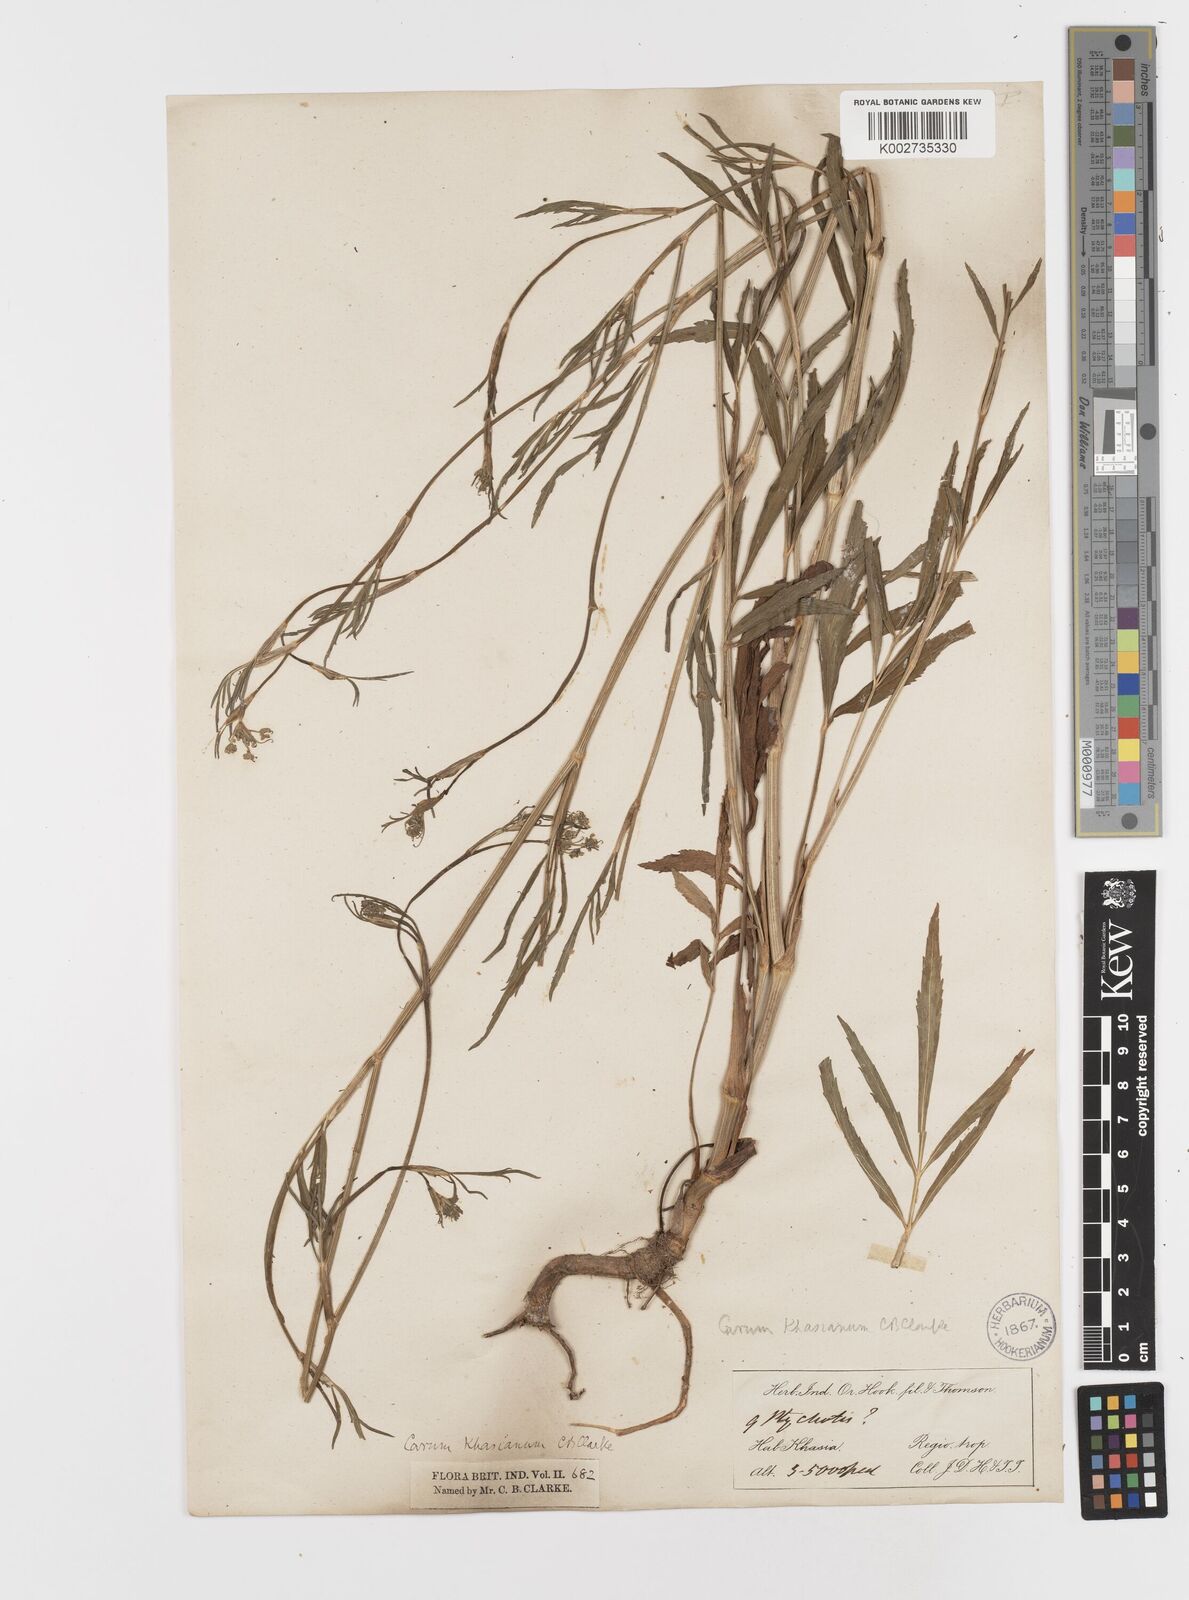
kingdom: Plantae
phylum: Tracheophyta
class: Magnoliopsida
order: Apiales
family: Apiaceae
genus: Trachyspermum
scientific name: Trachyspermum khasianum
